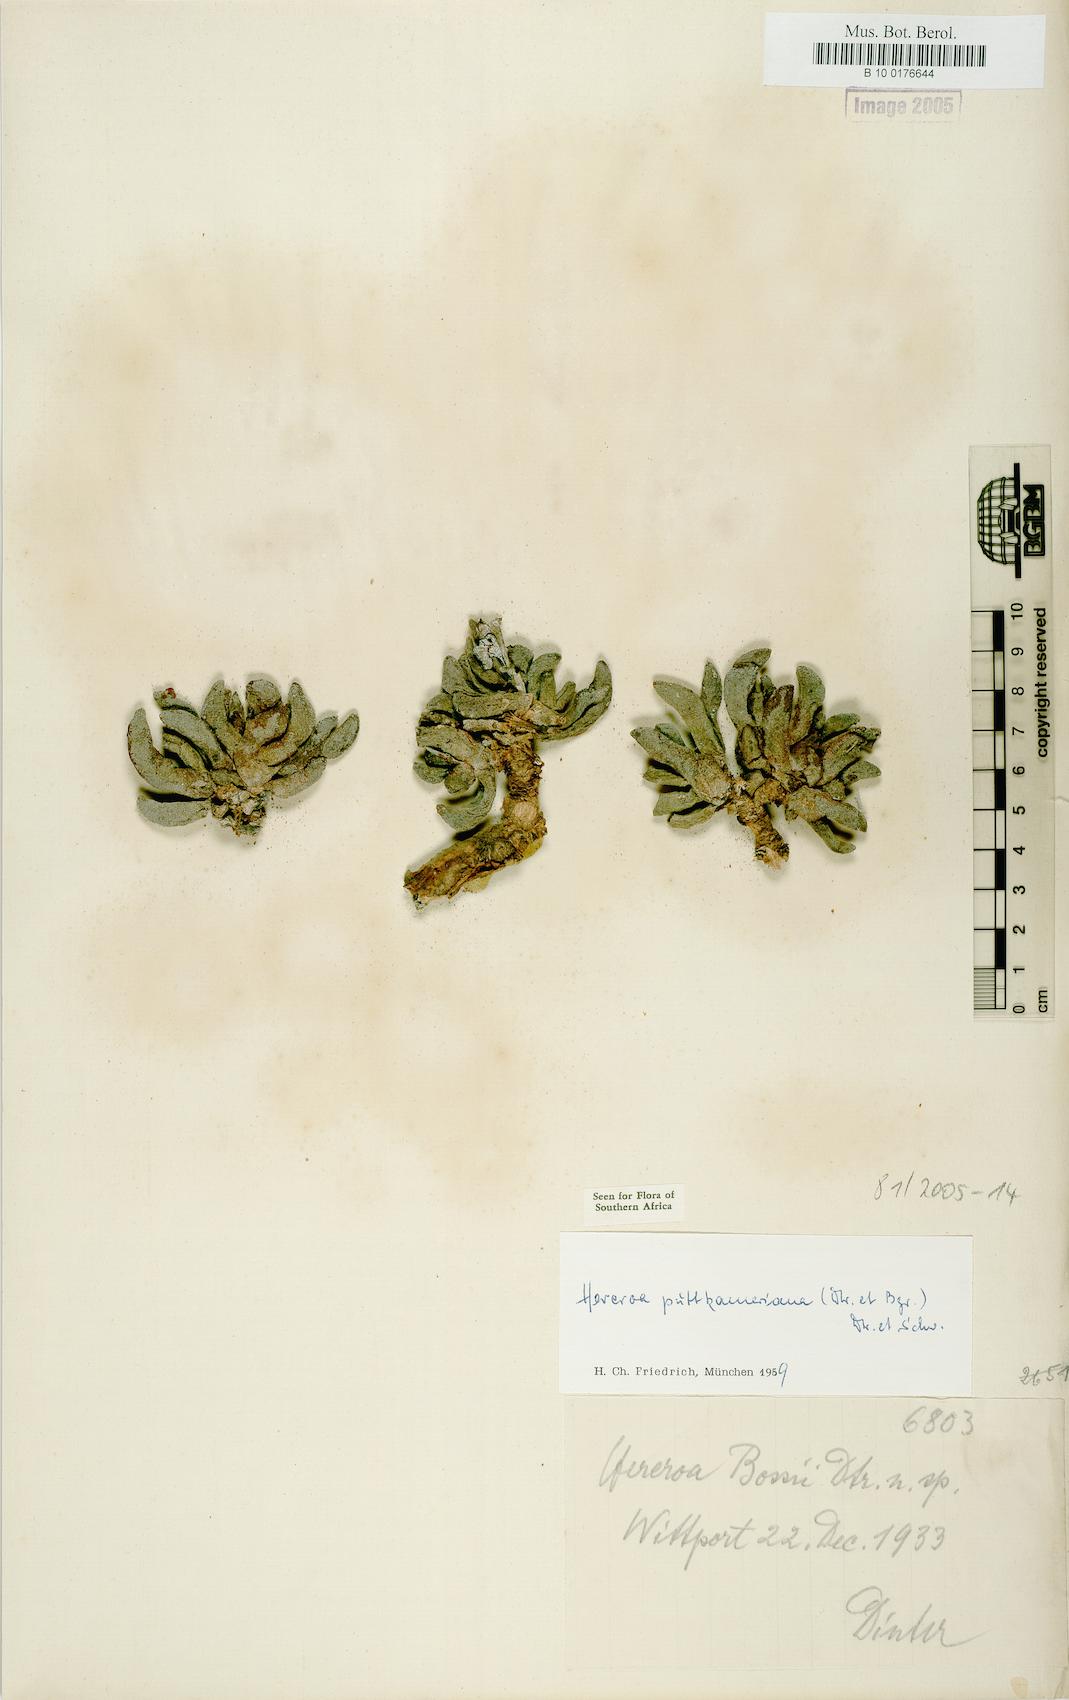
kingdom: Plantae
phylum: Tracheophyta
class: Magnoliopsida
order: Caryophyllales
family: Aizoaceae
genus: Dracophilus
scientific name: Dracophilus Hereroa puttkameriana
